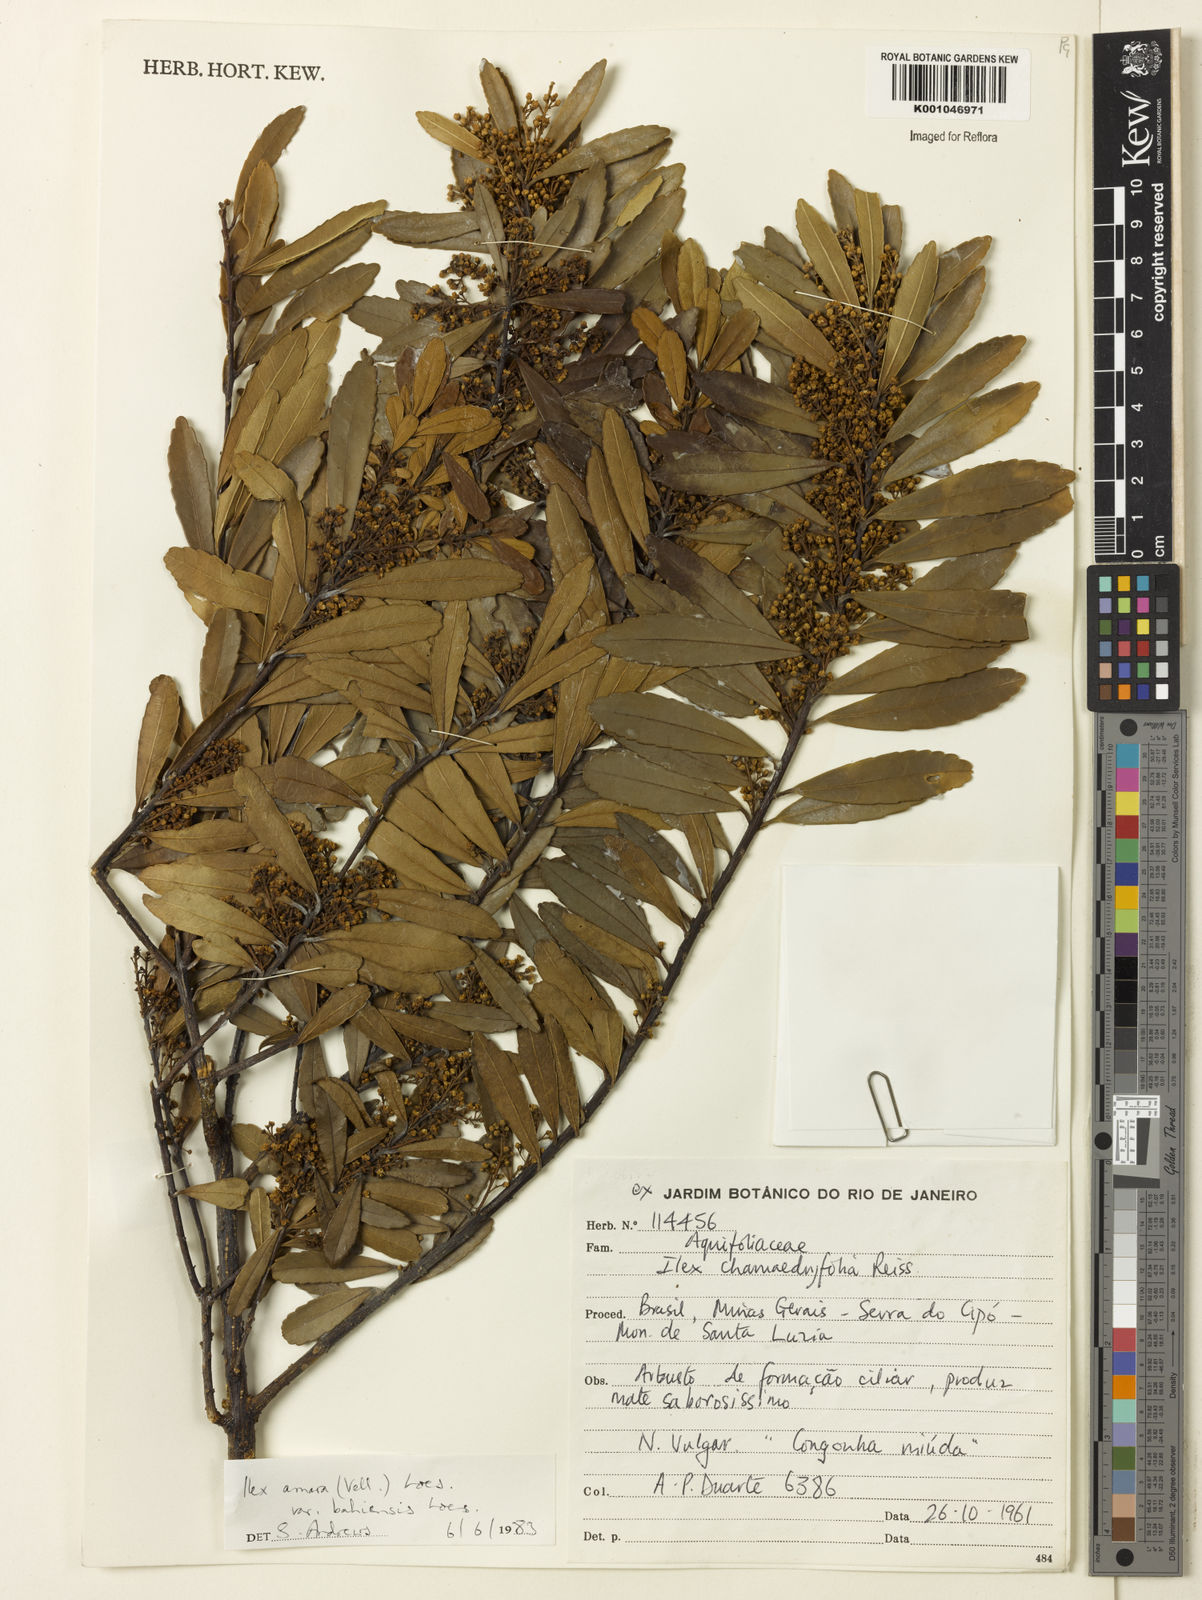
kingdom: Plantae
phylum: Tracheophyta
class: Magnoliopsida
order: Aquifoliales
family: Aquifoliaceae
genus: Ilex
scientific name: Ilex dumosa
